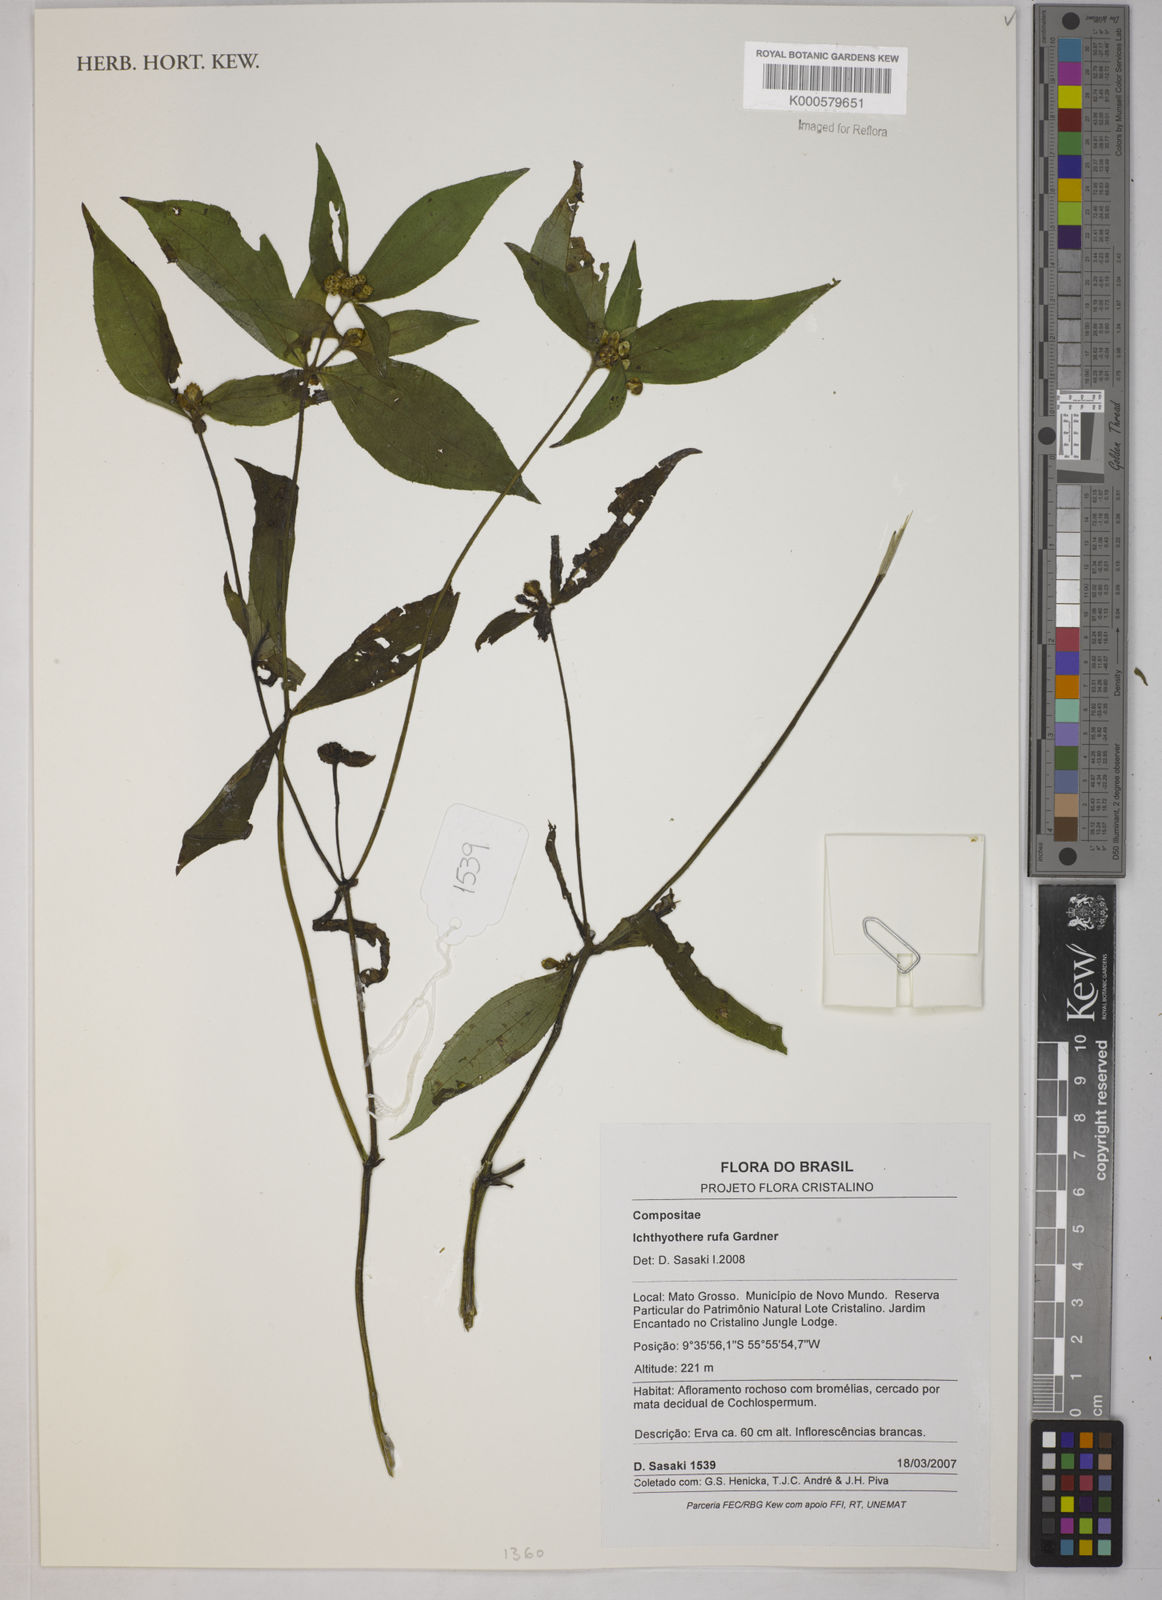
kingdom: Plantae
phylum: Tracheophyta
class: Magnoliopsida
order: Asterales
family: Asteraceae
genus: Ichthyothere
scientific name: Ichthyothere rufa
